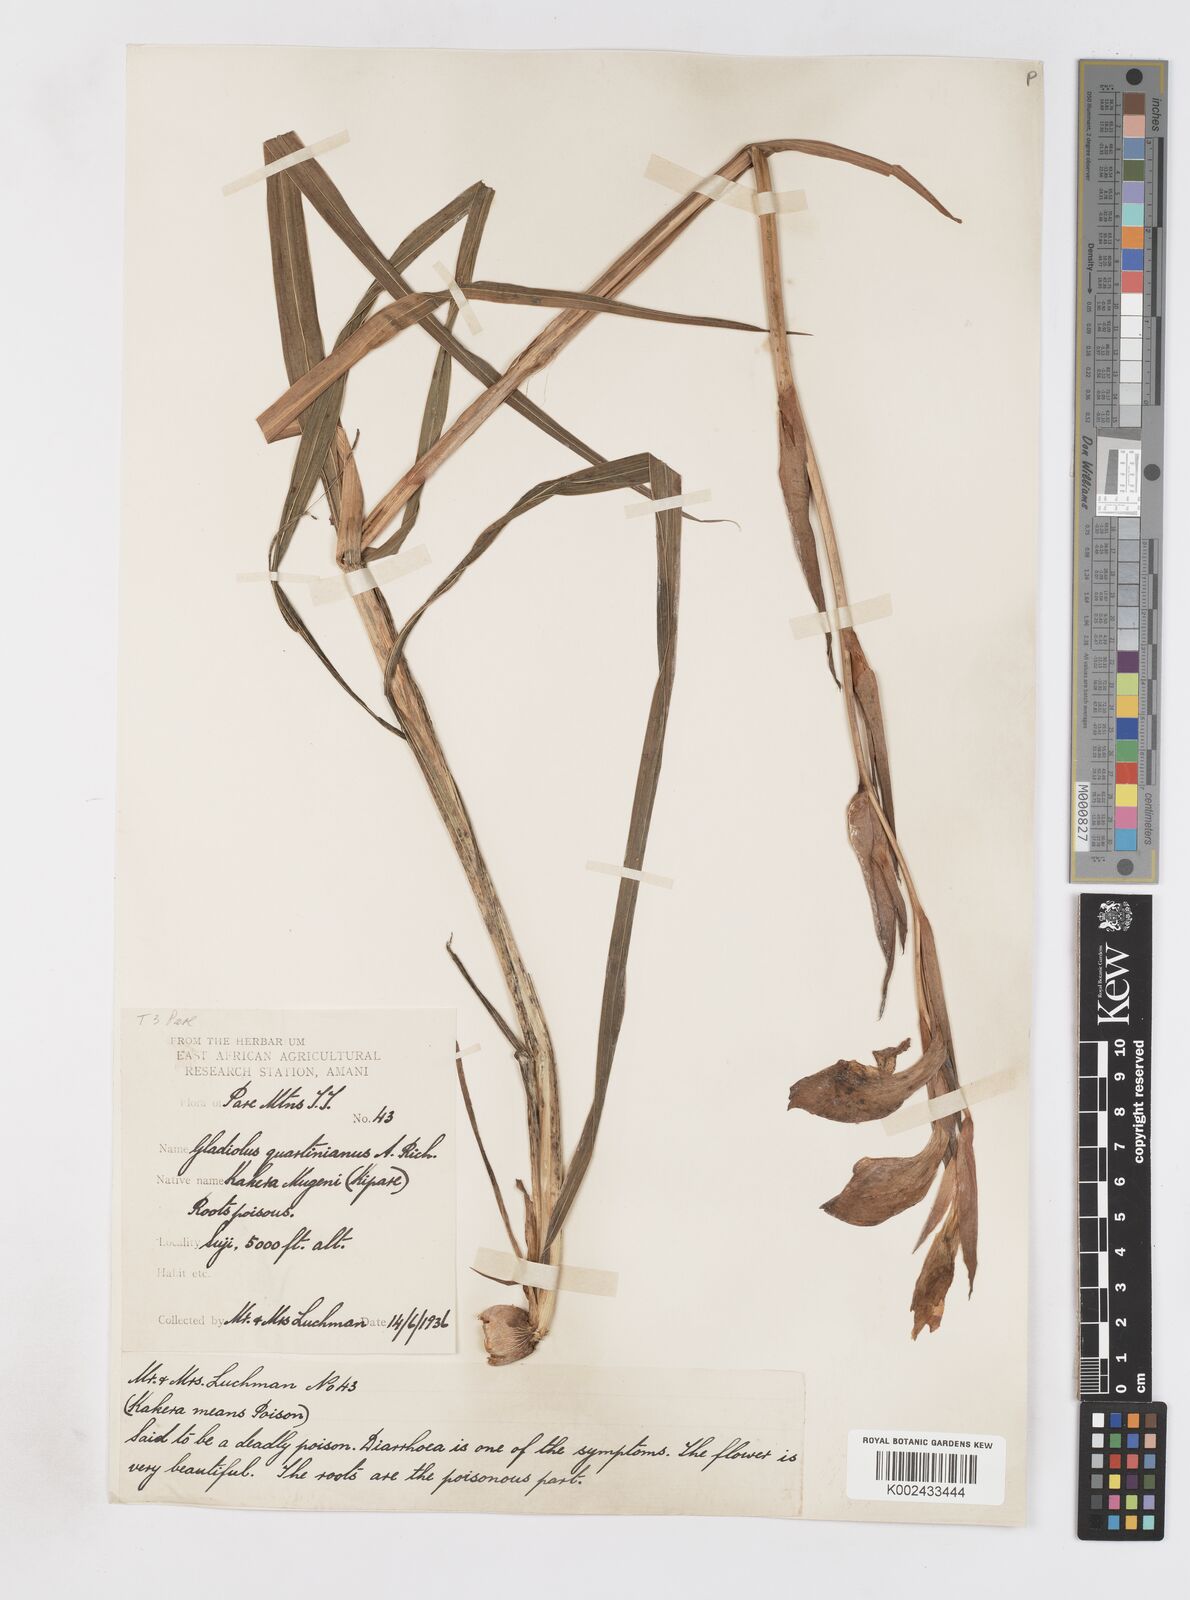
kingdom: Plantae
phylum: Tracheophyta
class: Liliopsida
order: Asparagales
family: Iridaceae
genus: Gladiolus
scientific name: Gladiolus dalenii
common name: Cornflag
